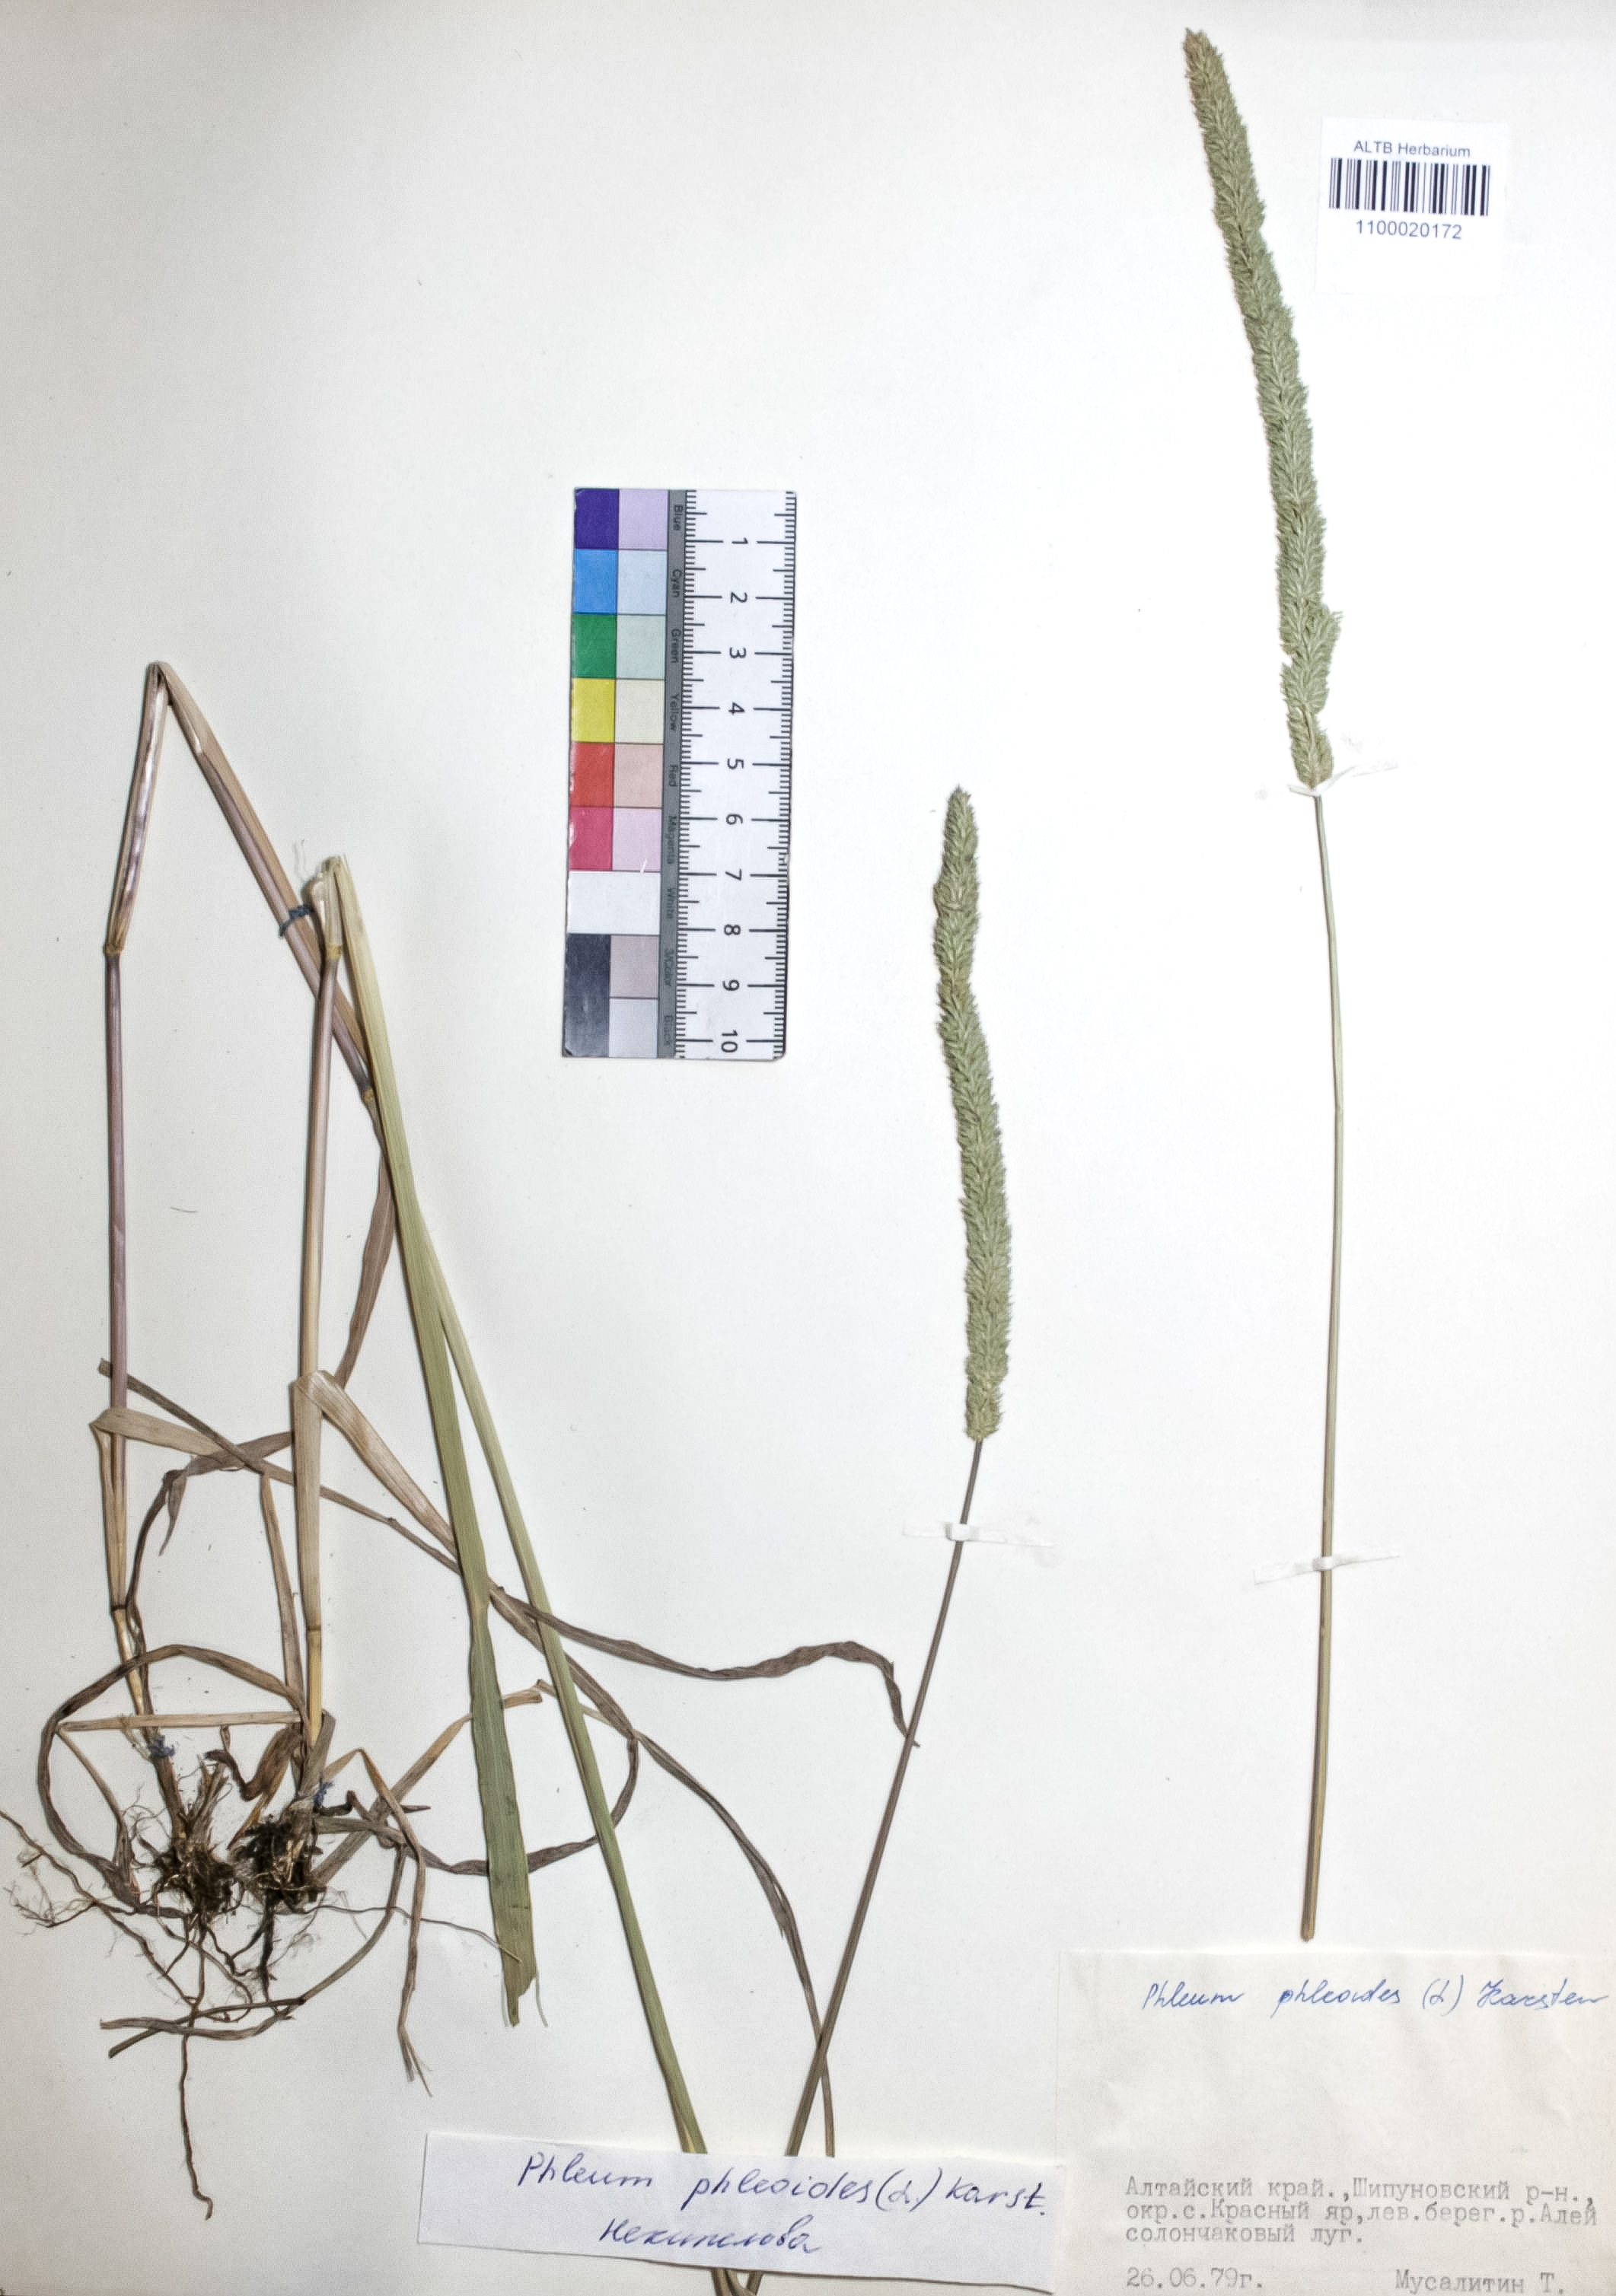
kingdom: Plantae
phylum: Tracheophyta
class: Liliopsida
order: Poales
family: Poaceae
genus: Phleum
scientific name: Phleum phleoides
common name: Purple-stem cat's-tail
